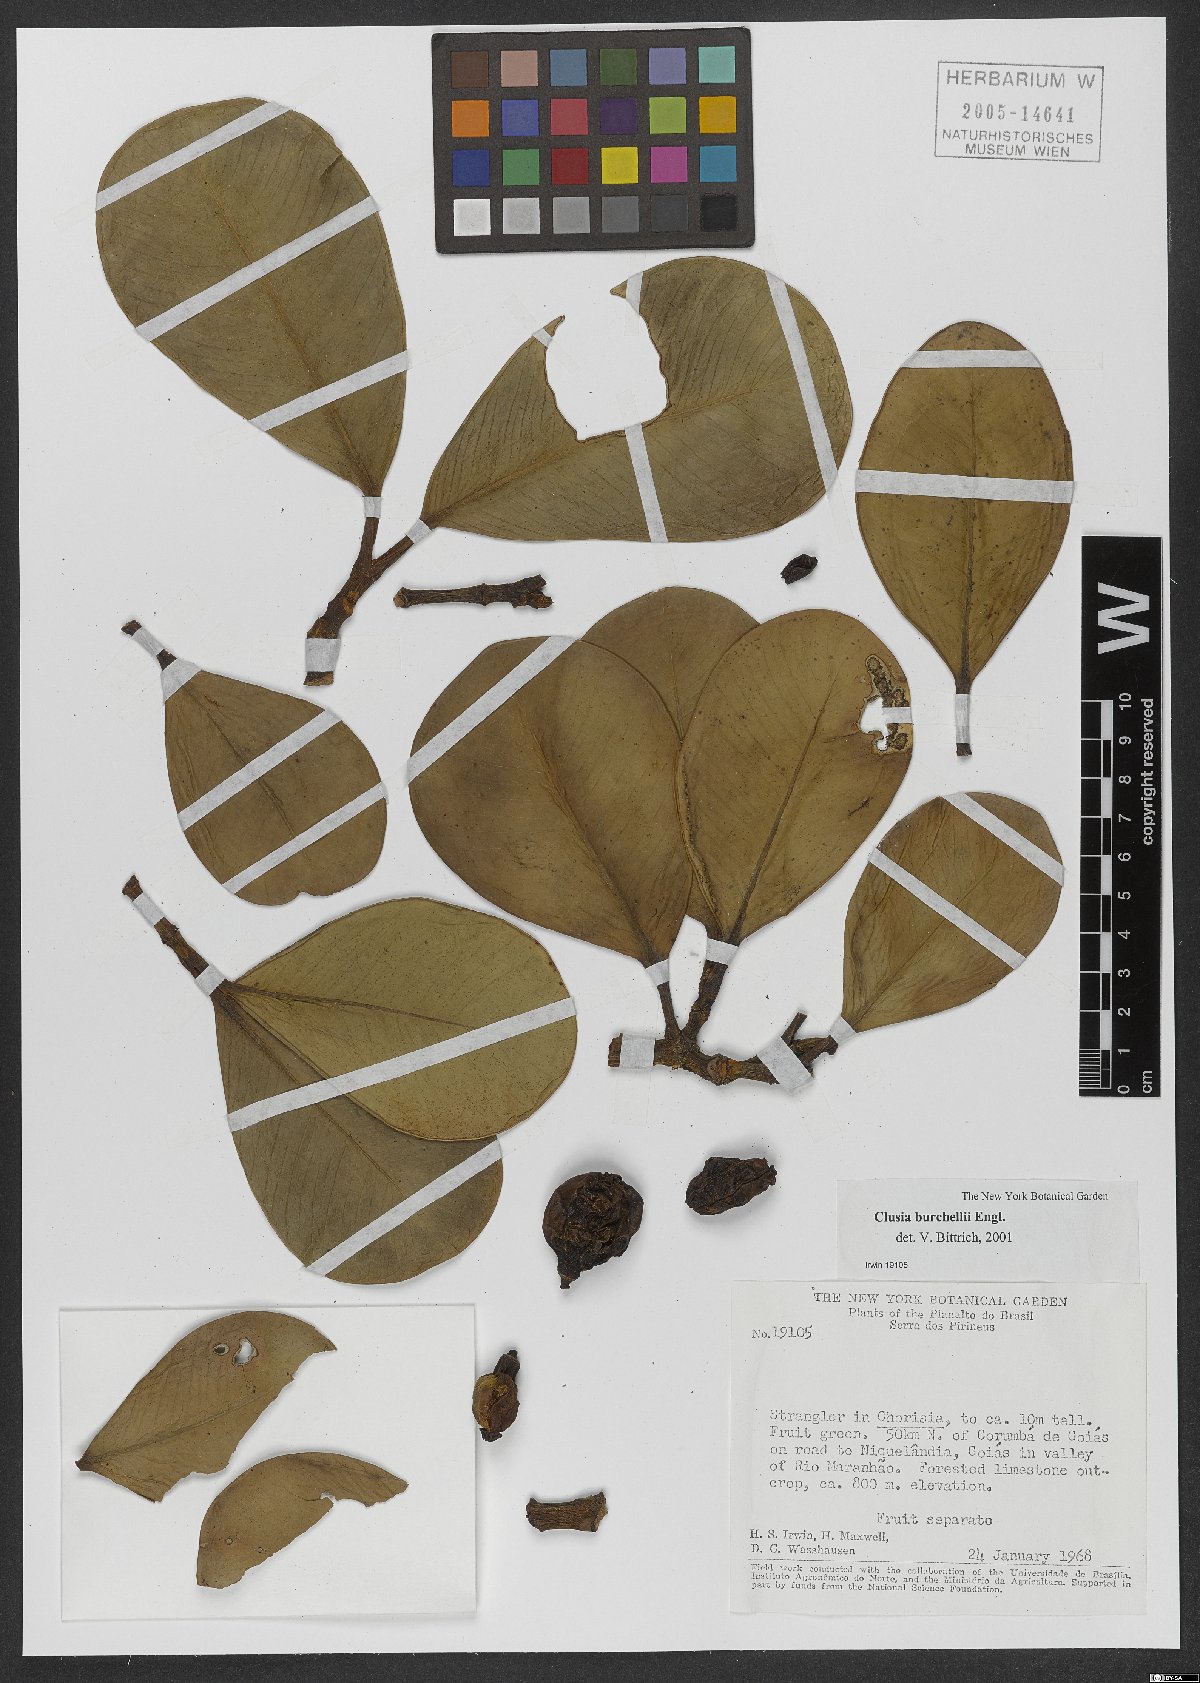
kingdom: Plantae
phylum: Tracheophyta
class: Magnoliopsida
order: Malpighiales
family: Clusiaceae
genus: Clusia
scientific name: Clusia burchellii
